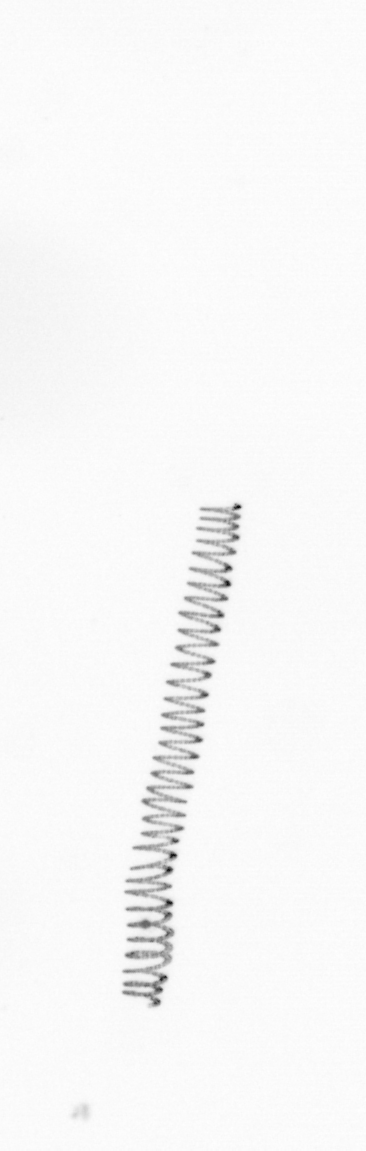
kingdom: Chromista
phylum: Ochrophyta
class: Bacillariophyceae
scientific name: Bacillariophyceae
